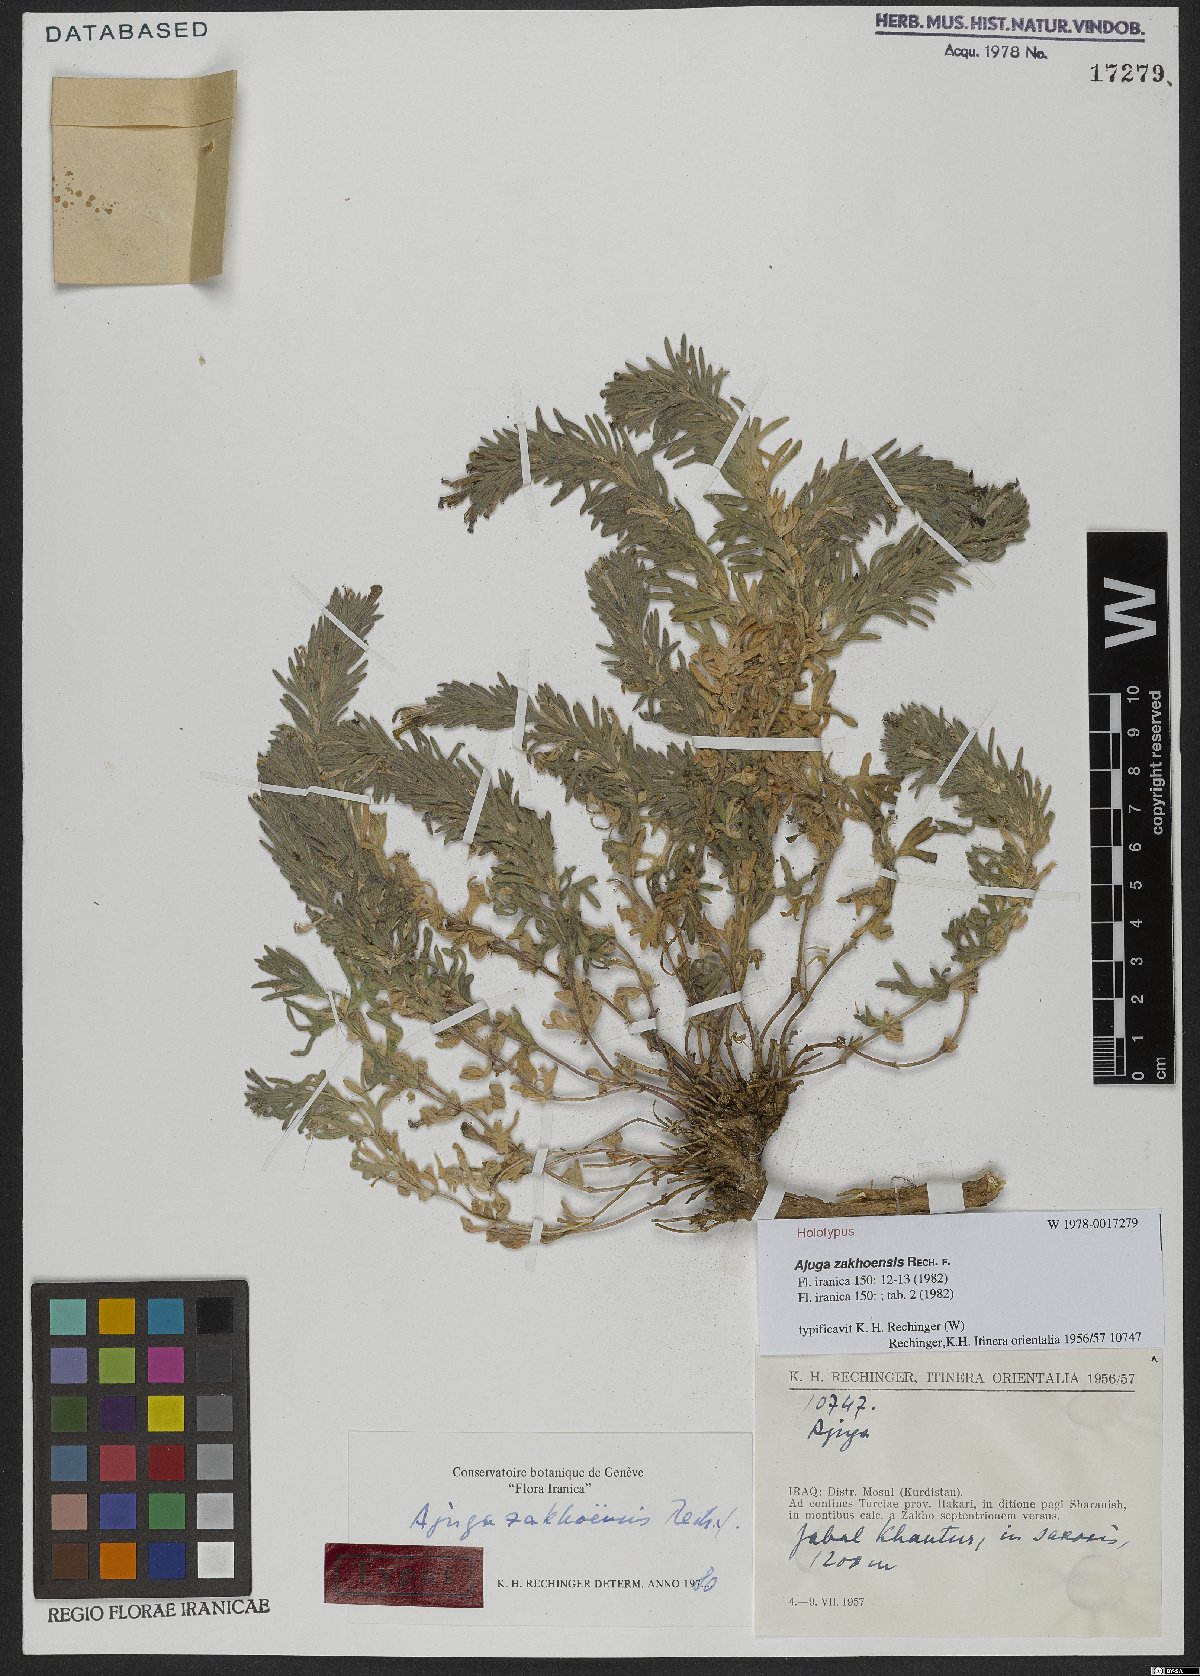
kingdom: Plantae
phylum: Tracheophyta
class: Magnoliopsida
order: Lamiales
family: Lamiaceae
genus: Ajuga
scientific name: Ajuga zakhoensis
